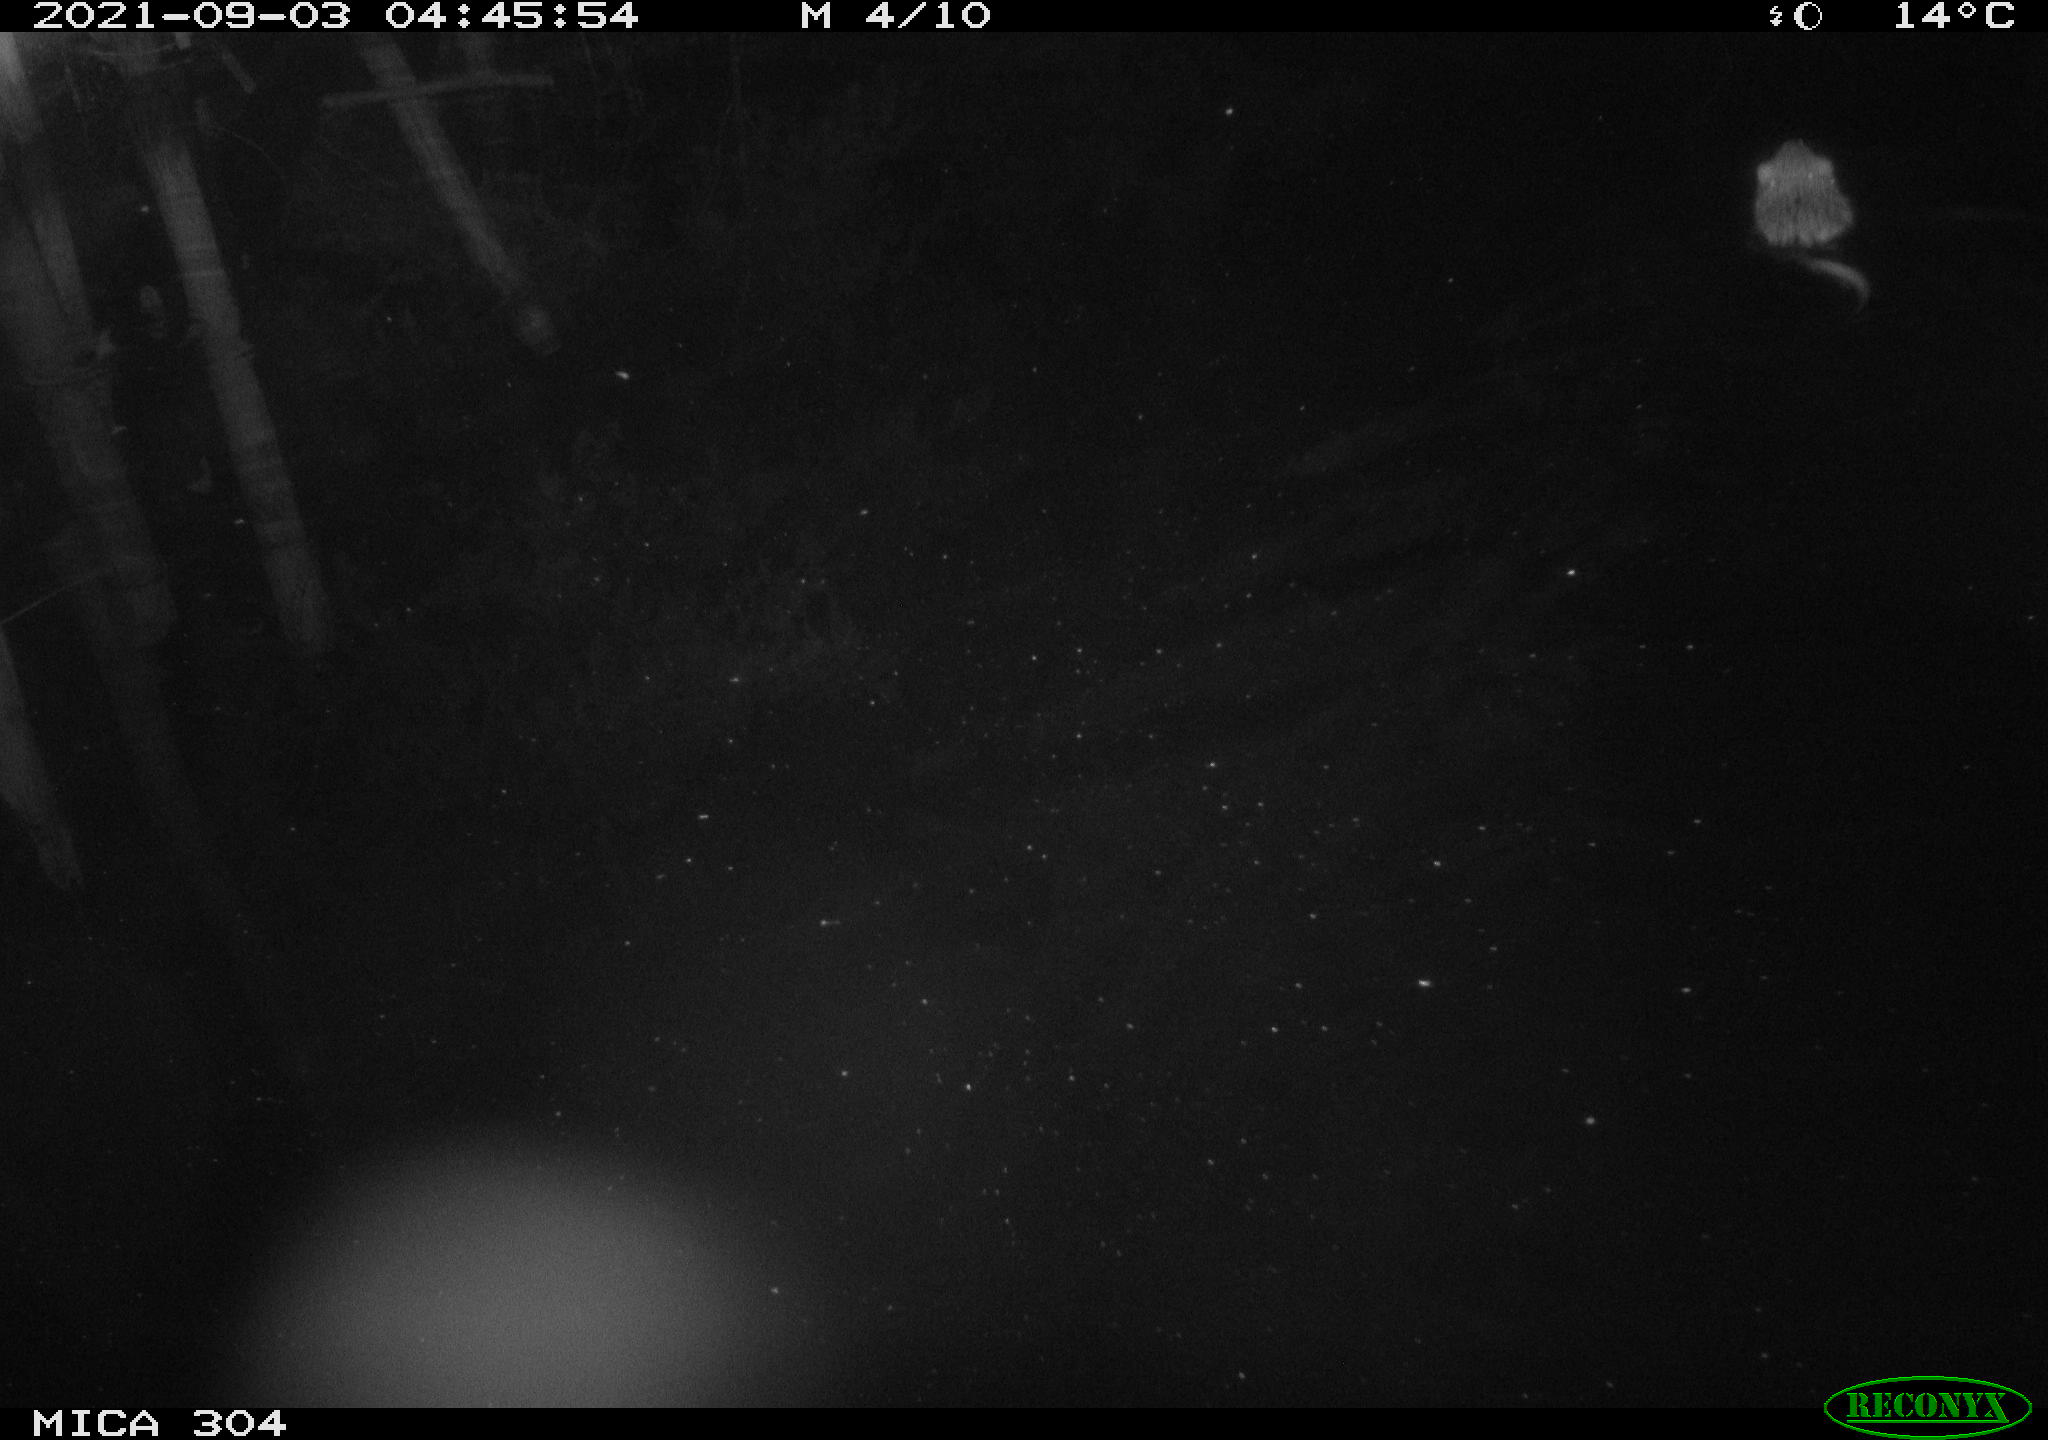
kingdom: Animalia
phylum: Chordata
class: Mammalia
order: Rodentia
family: Cricetidae
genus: Ondatra
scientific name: Ondatra zibethicus
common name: Muskrat
